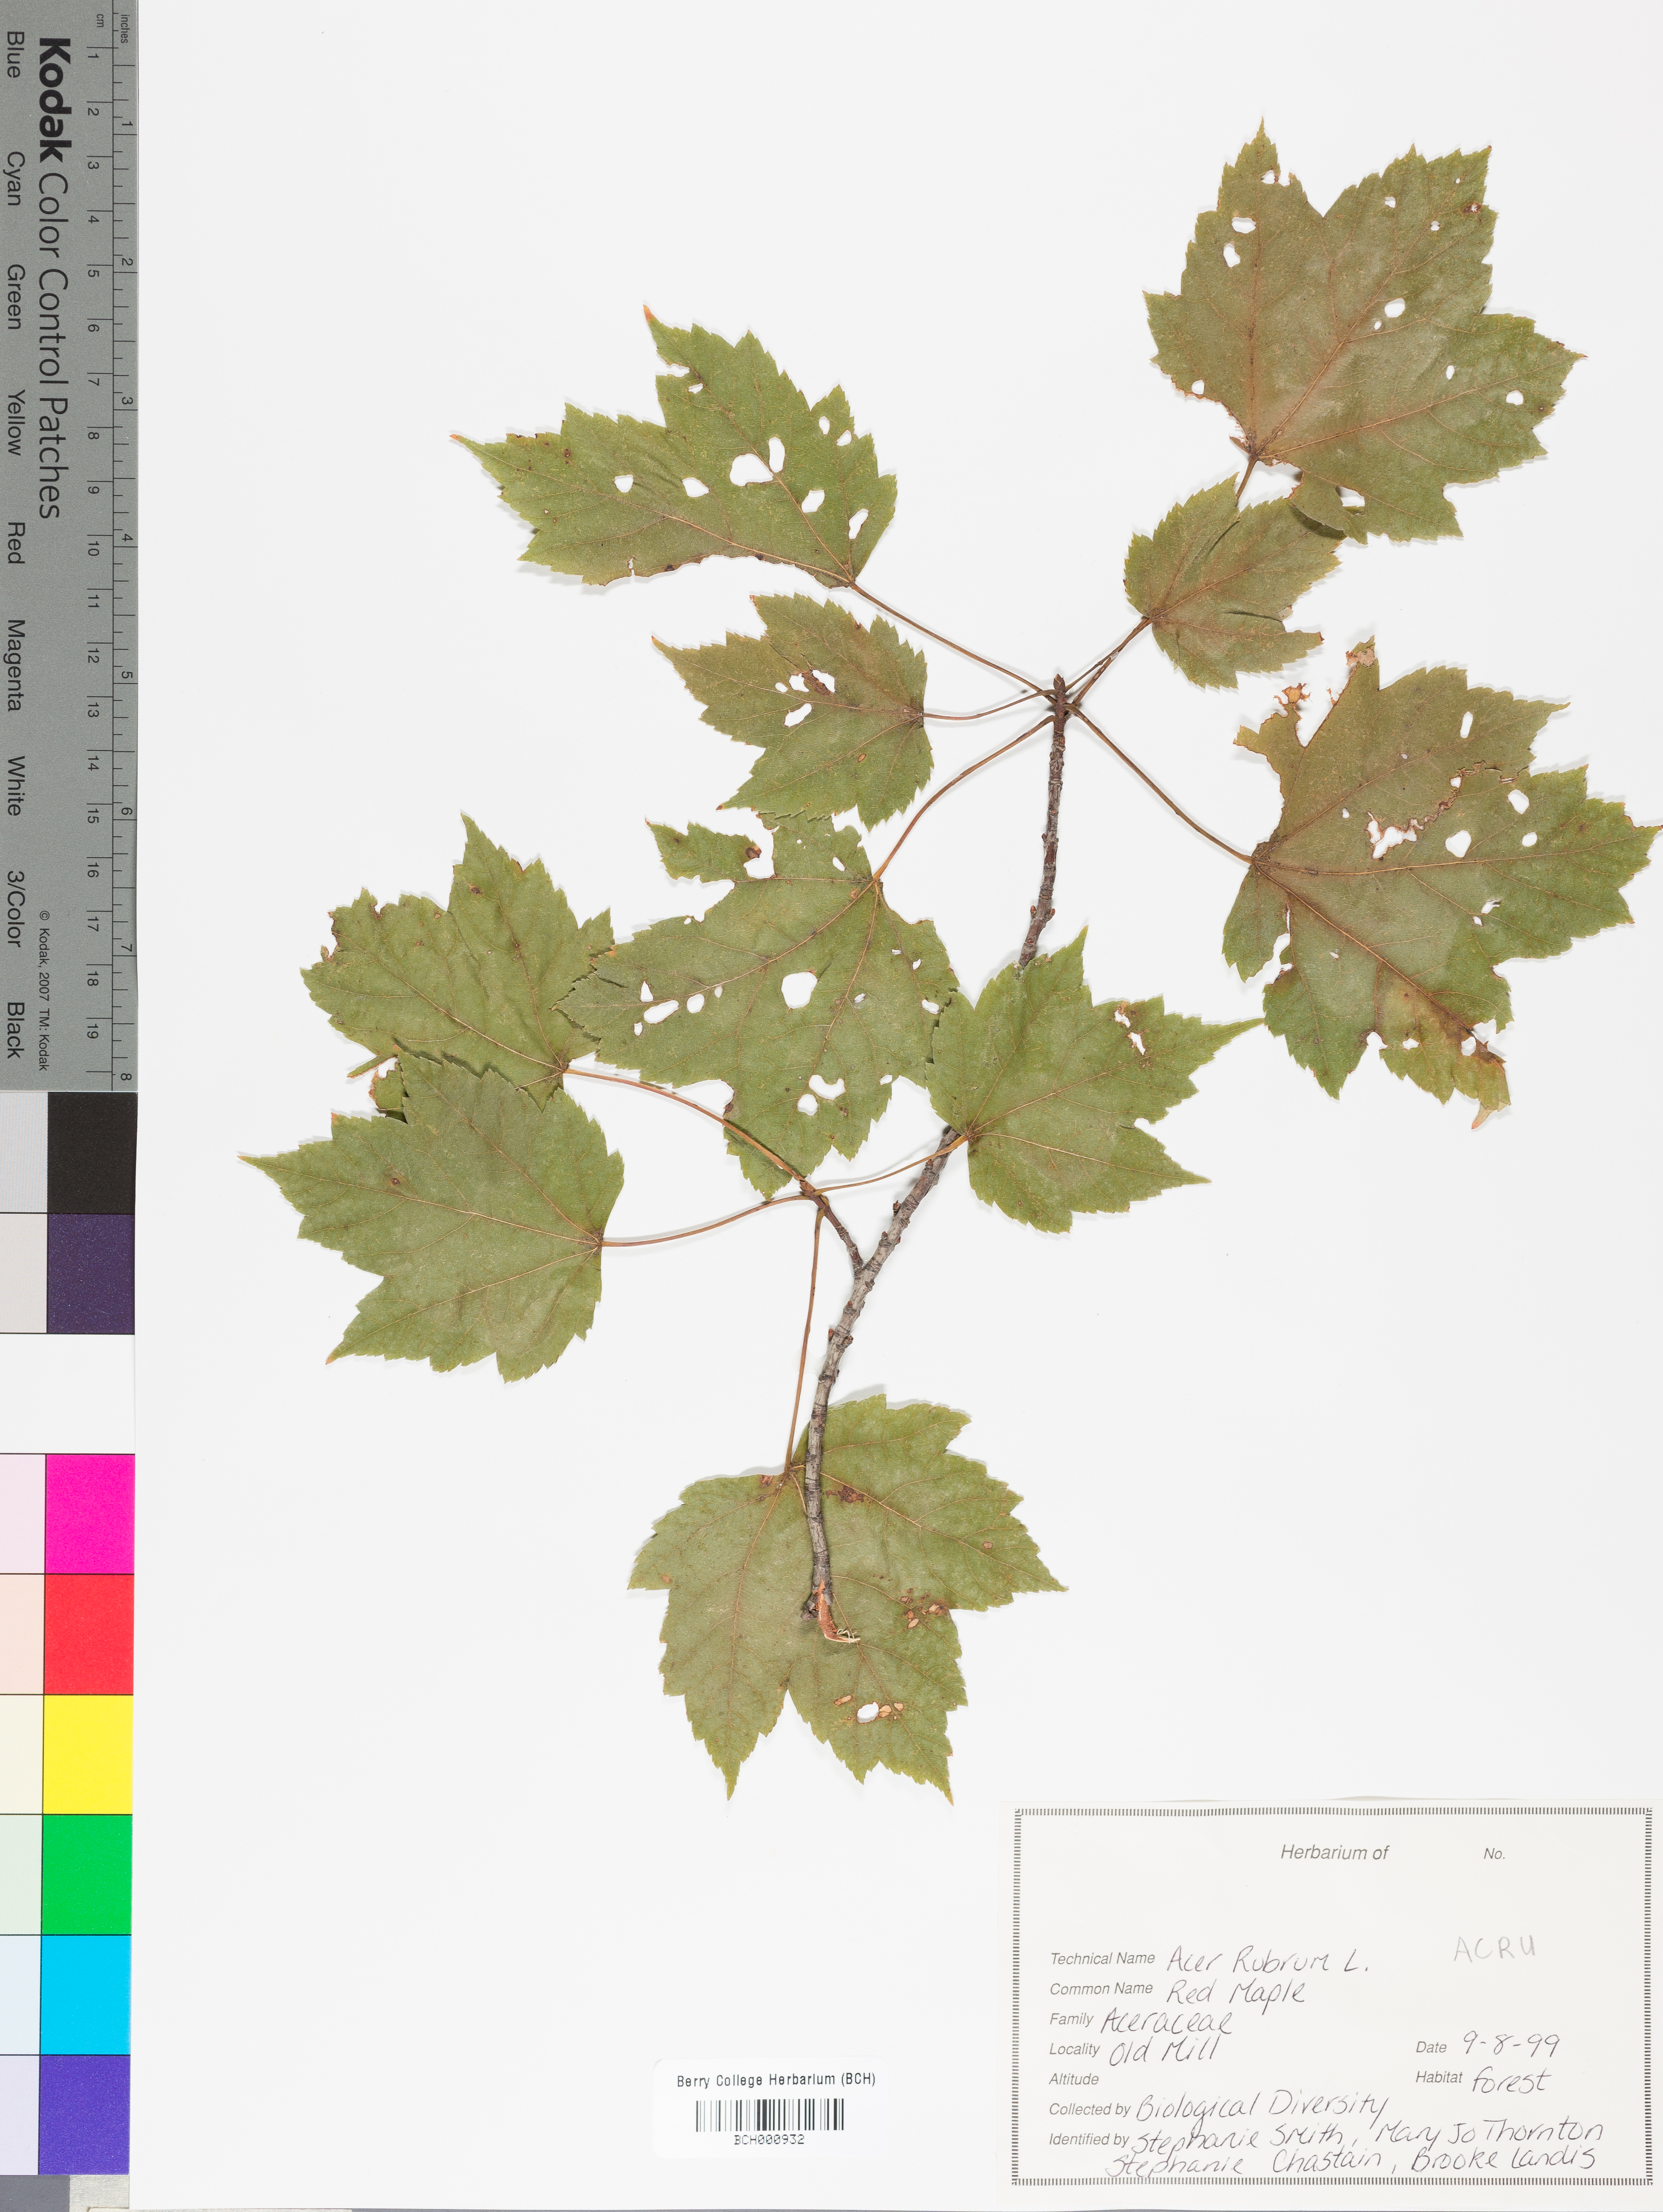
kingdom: Plantae
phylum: Tracheophyta
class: Magnoliopsida
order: Sapindales
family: Sapindaceae
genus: Acer
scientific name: Acer rubrum
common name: Red maple
